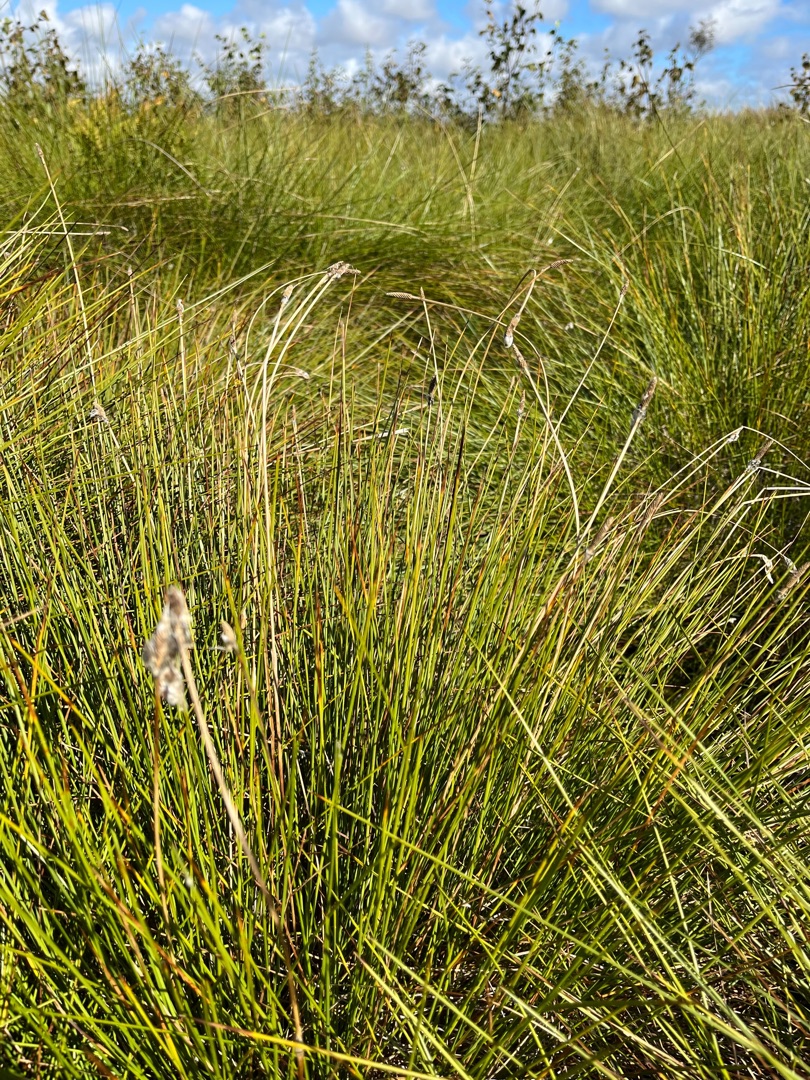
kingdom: Plantae
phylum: Tracheophyta
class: Liliopsida
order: Poales
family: Cyperaceae
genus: Eriophorum
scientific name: Eriophorum vaginatum
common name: Tue-kæruld
